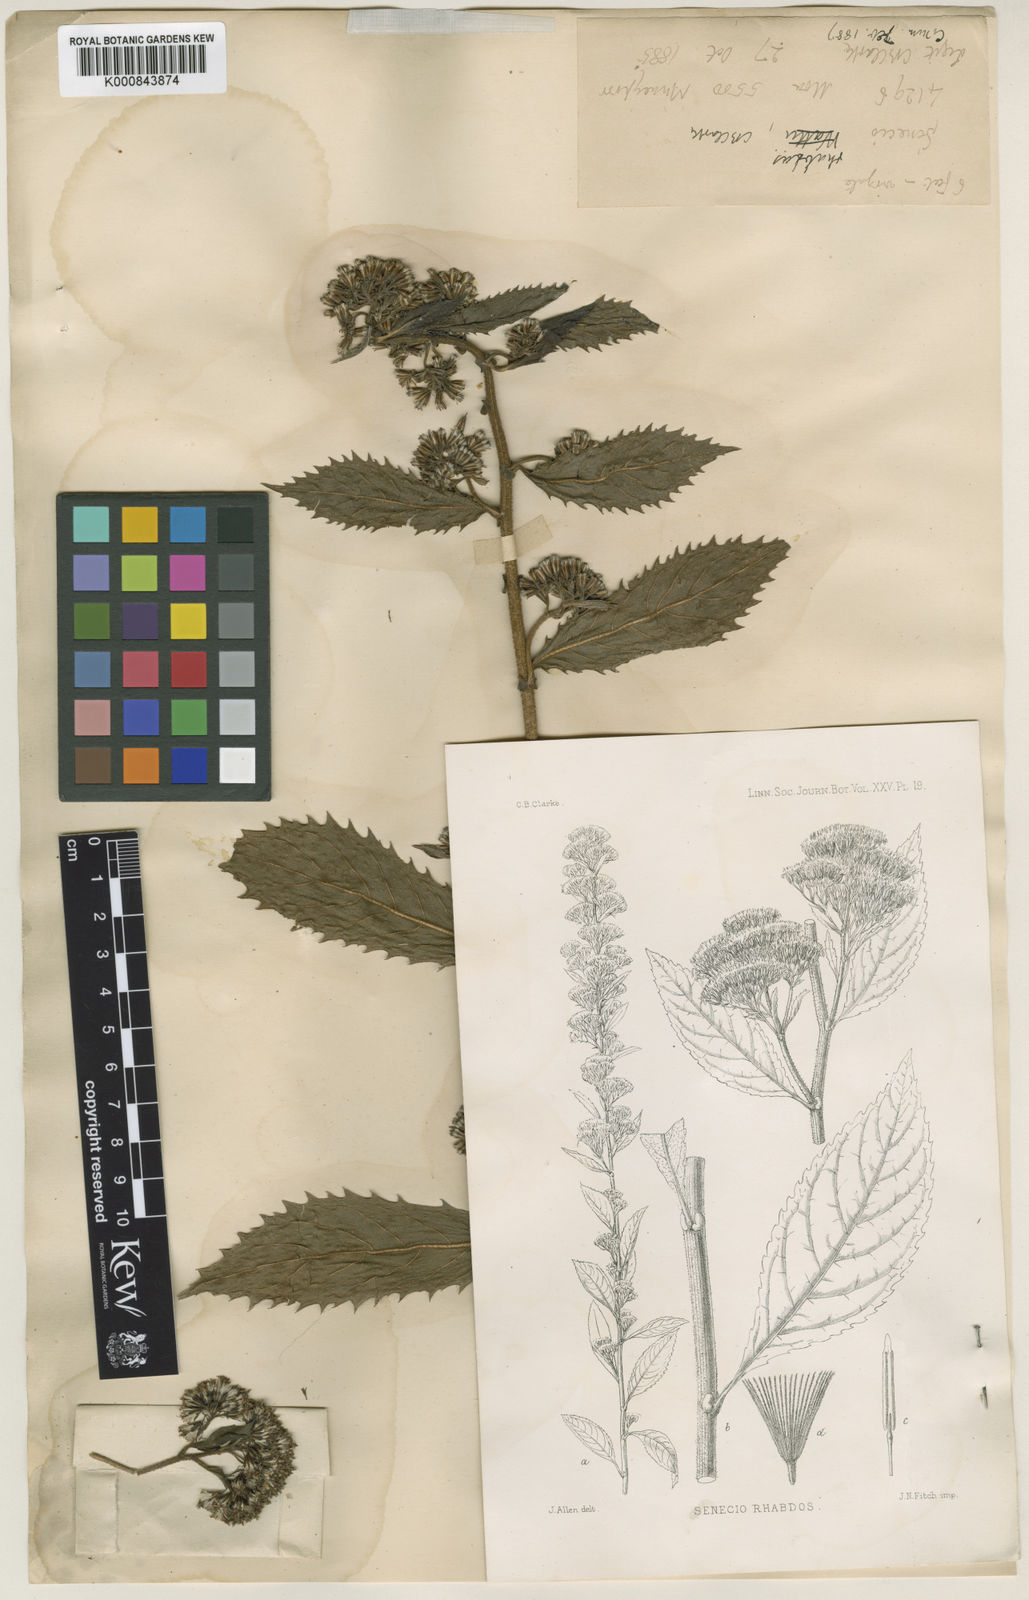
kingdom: Plantae
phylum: Tracheophyta
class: Magnoliopsida
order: Asterales
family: Asteraceae
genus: Synotis
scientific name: Synotis rufinervis
